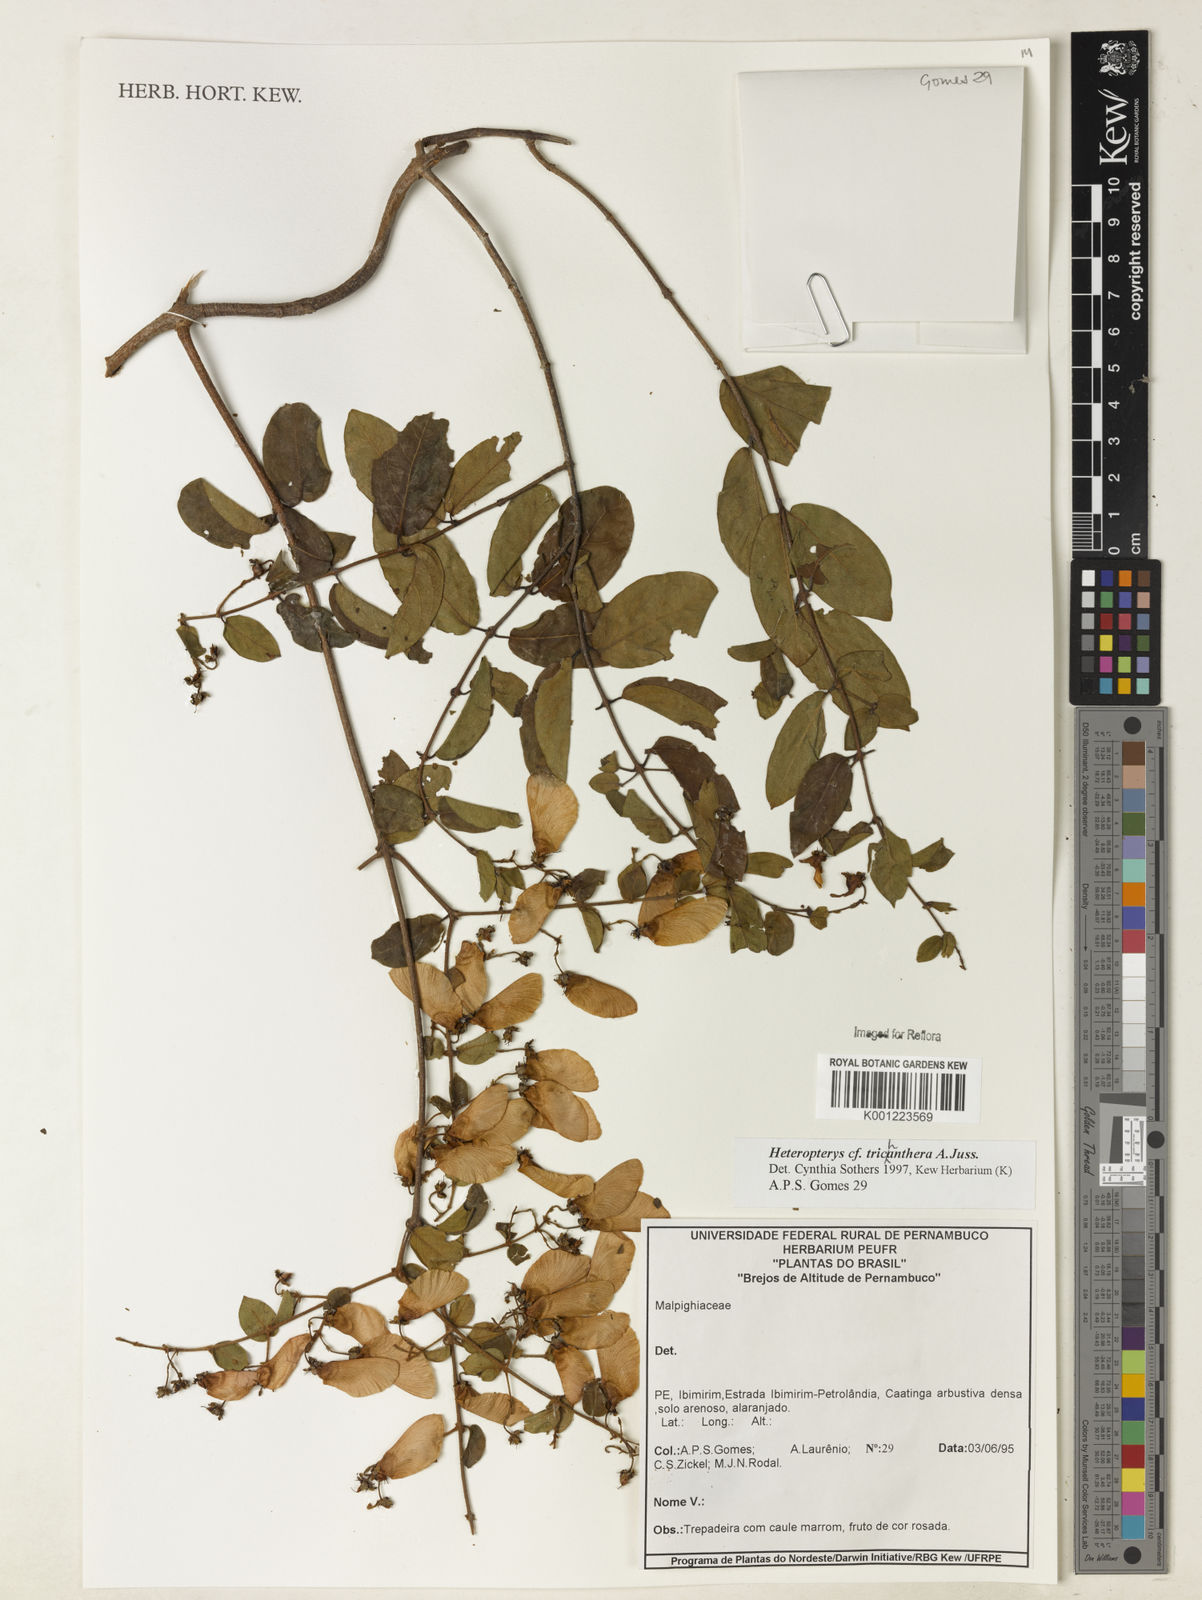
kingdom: Plantae
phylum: Tracheophyta
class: Magnoliopsida
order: Malpighiales
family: Malpighiaceae
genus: Heteropterys
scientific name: Heteropterys trichanthera
